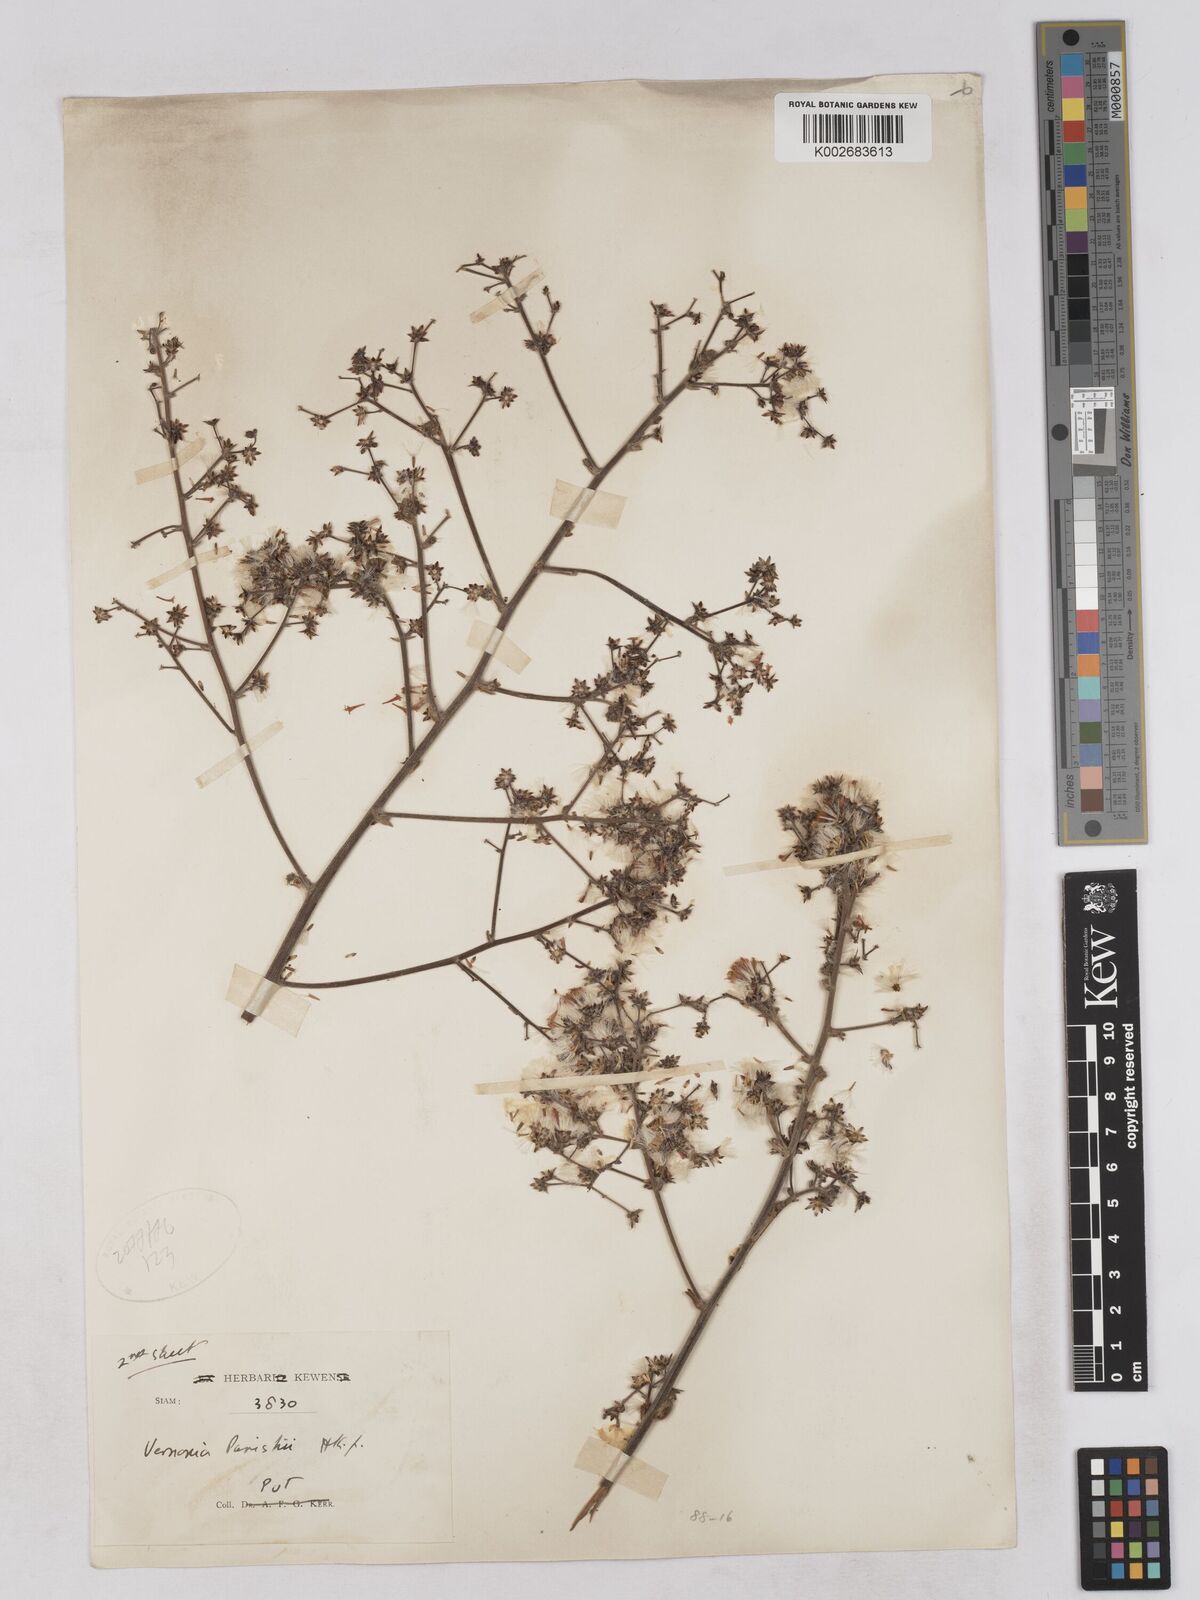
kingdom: Plantae
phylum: Tracheophyta
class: Magnoliopsida
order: Asterales
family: Asteraceae
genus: Monosis
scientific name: Monosis parishii
